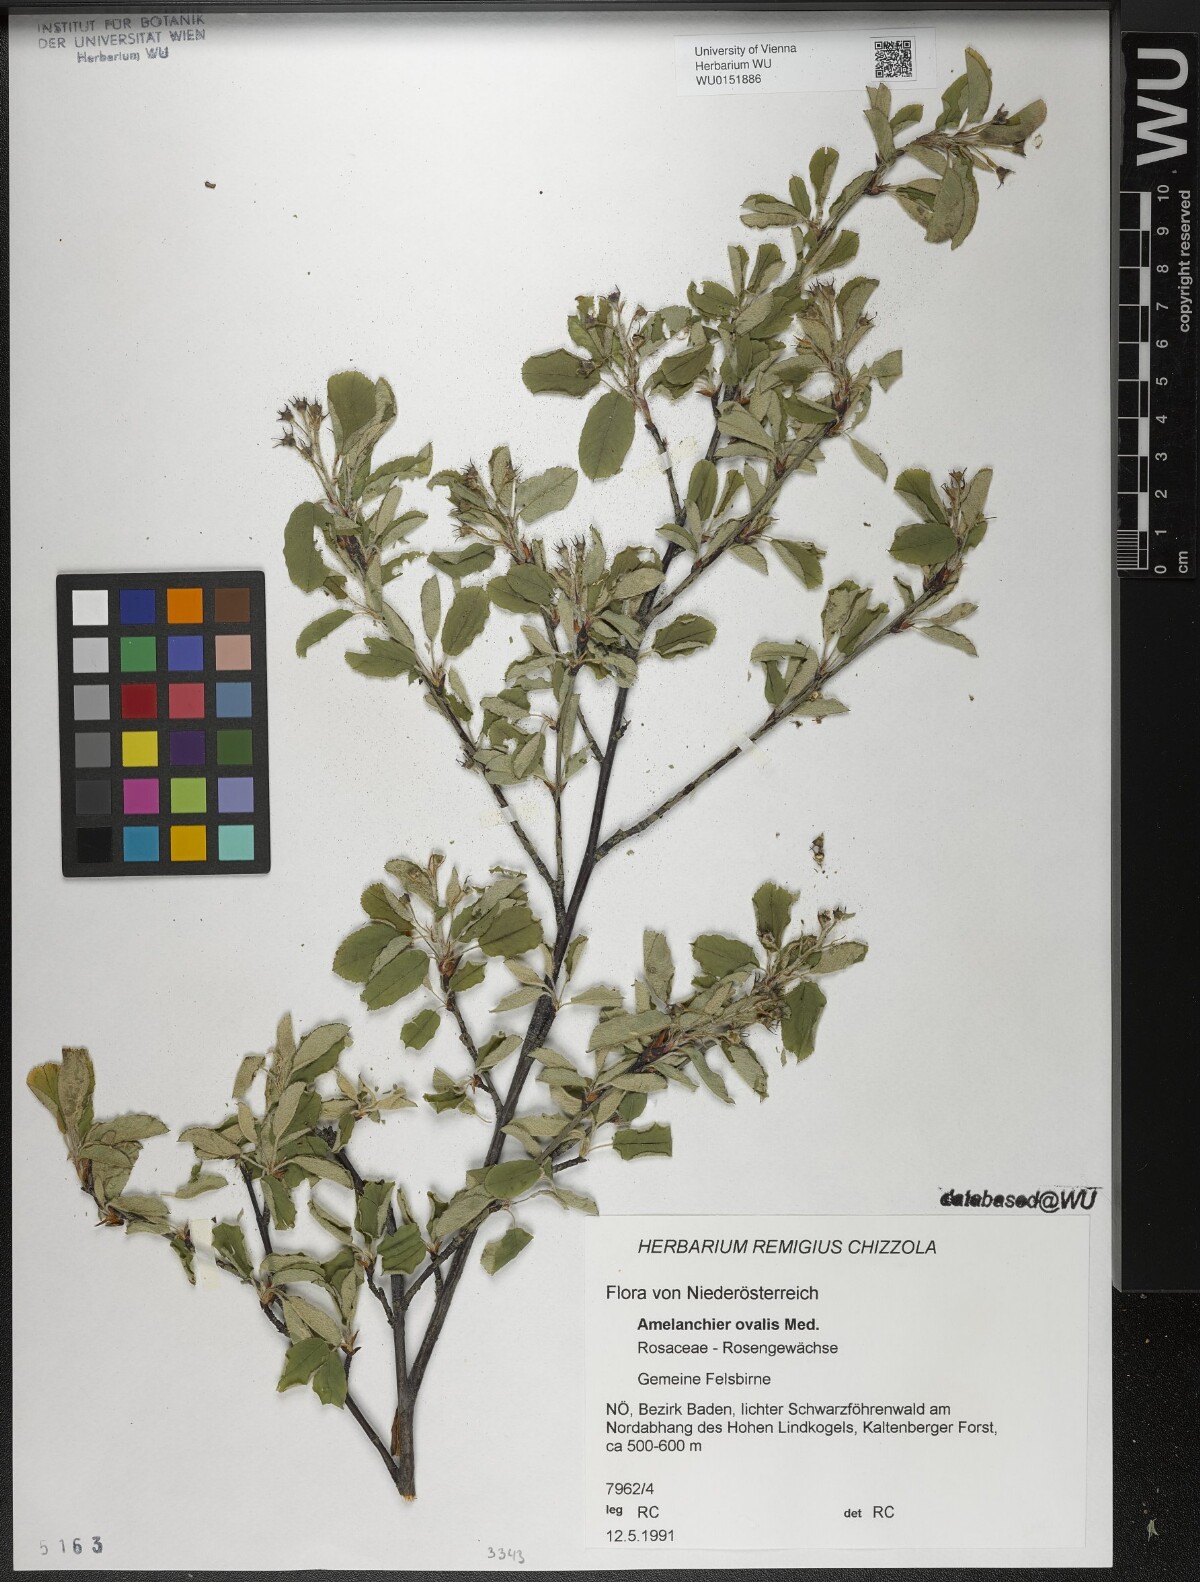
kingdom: Plantae
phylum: Tracheophyta
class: Magnoliopsida
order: Rosales
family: Rosaceae
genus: Amelanchier
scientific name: Amelanchier ovalis
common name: Serviceberry
